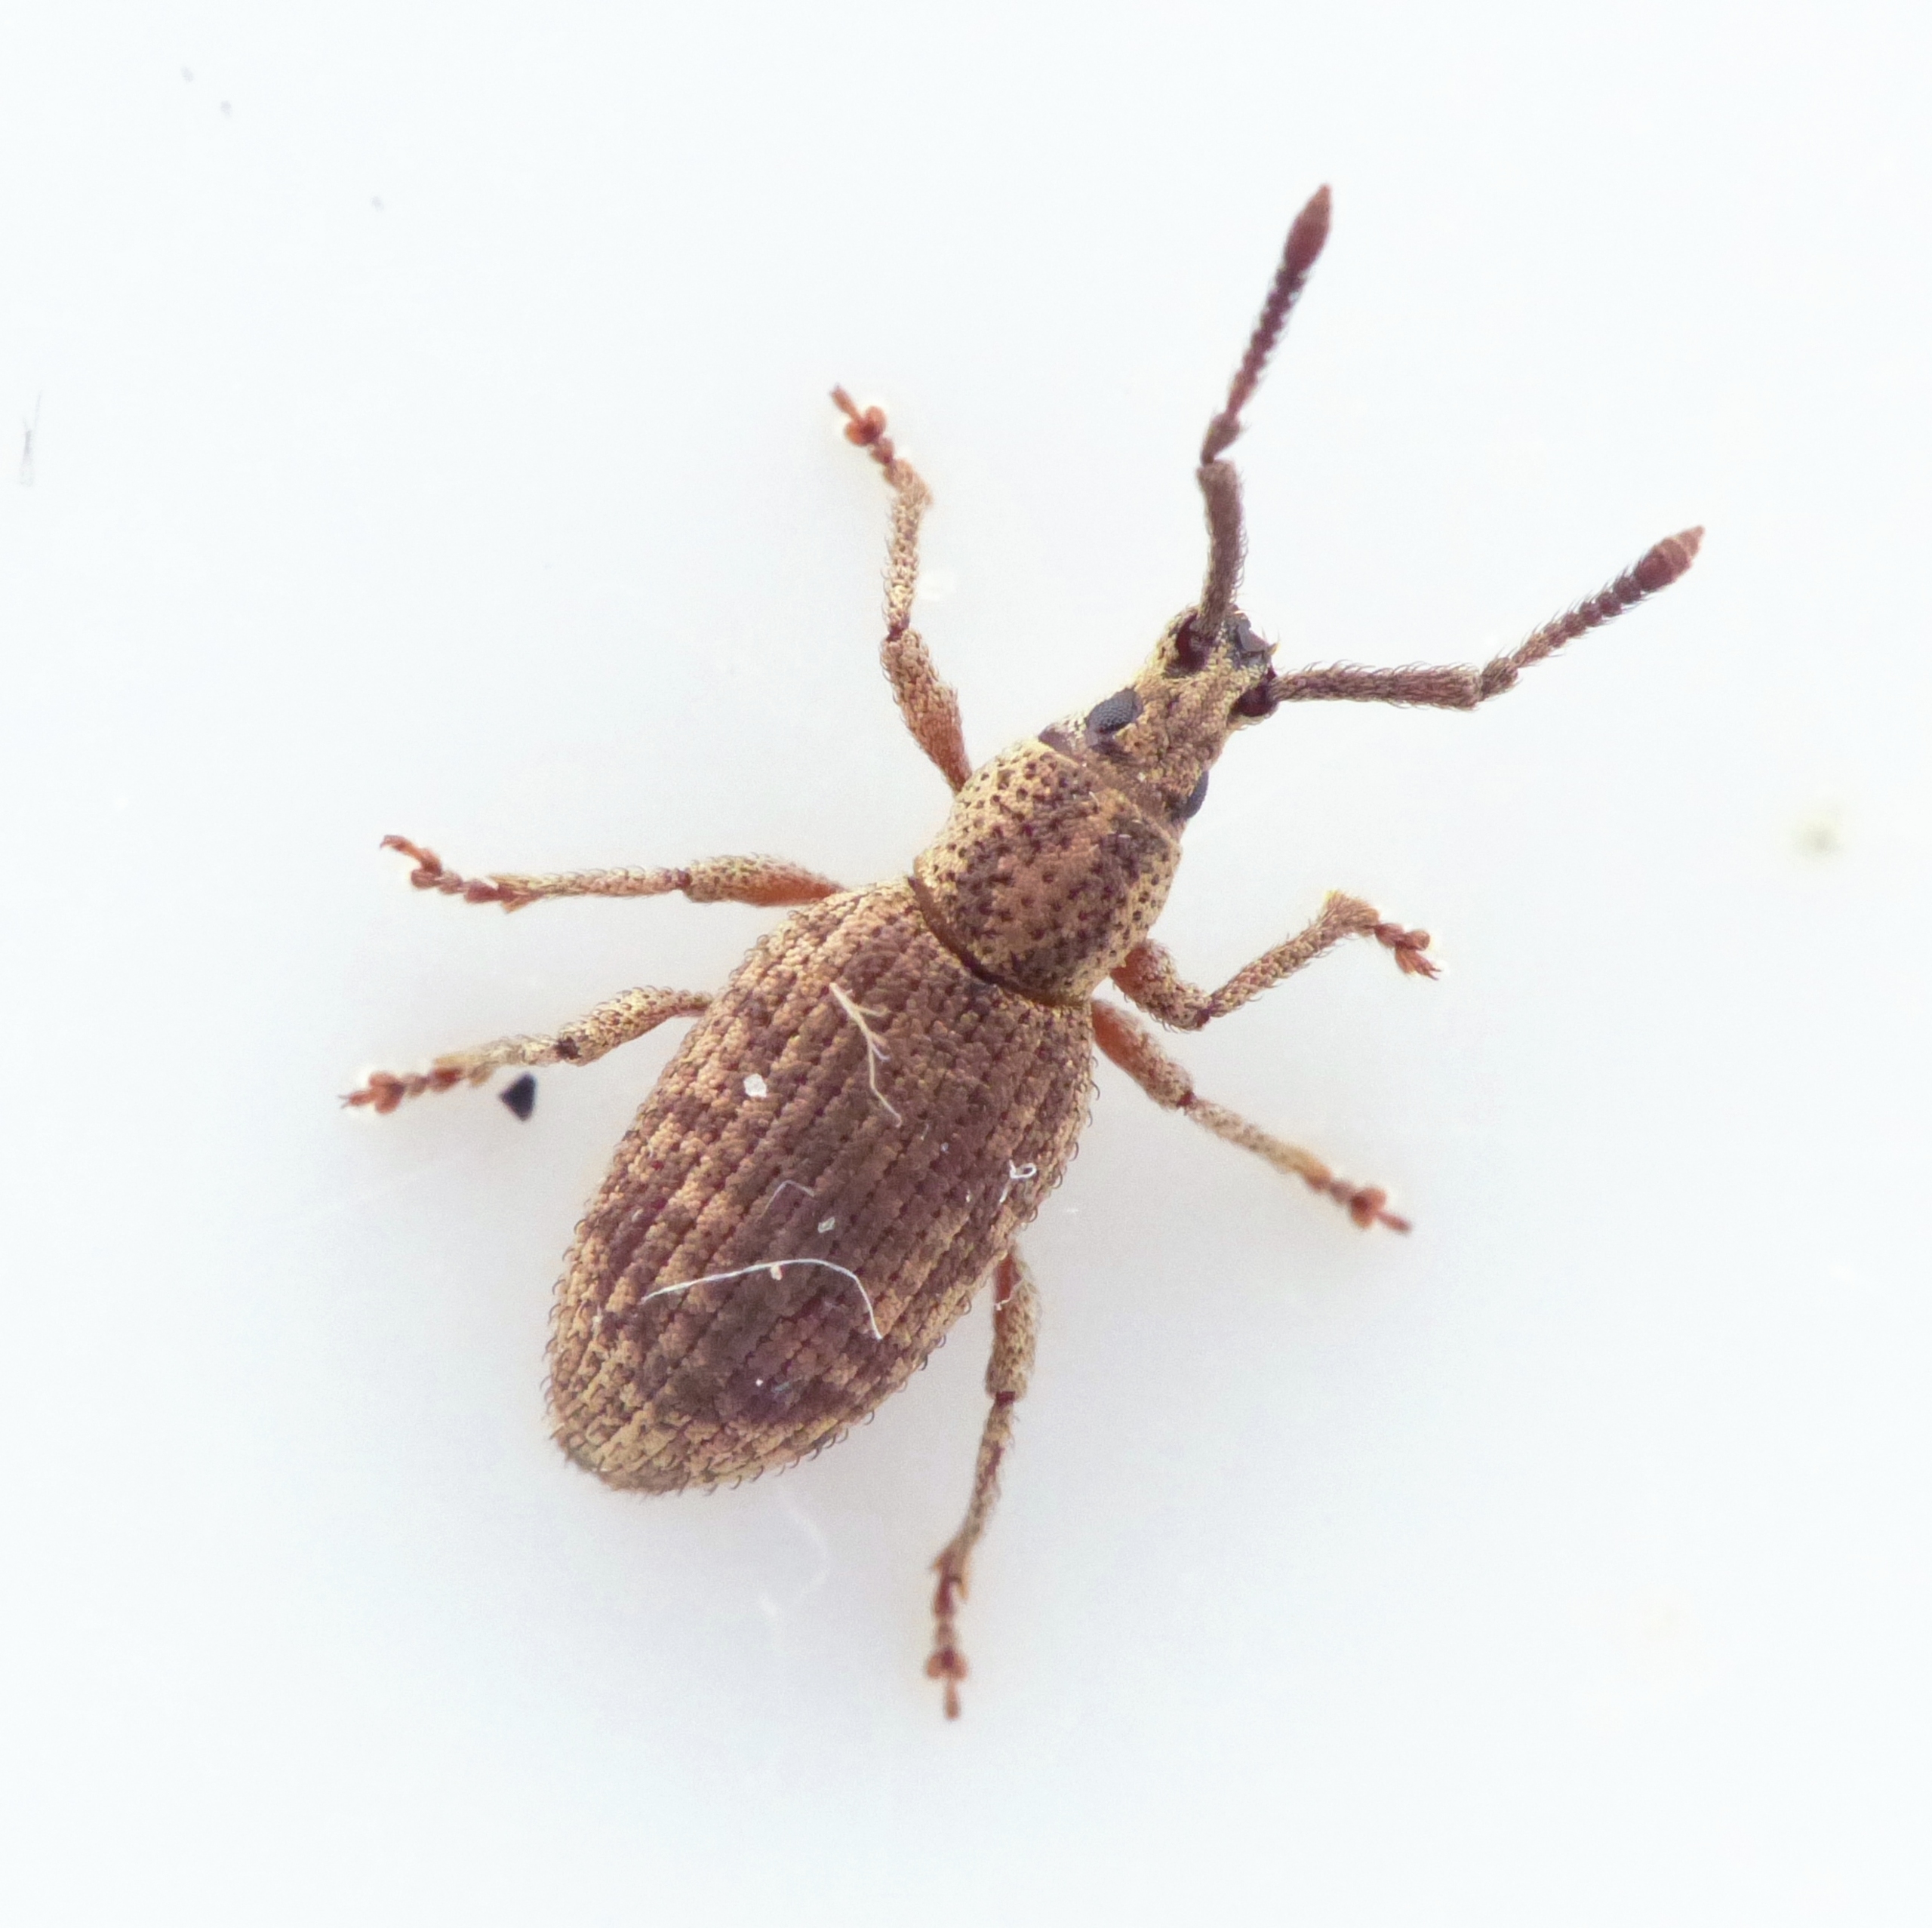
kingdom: Animalia
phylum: Arthropoda
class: Insecta
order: Coleoptera
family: Curculionidae
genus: Simo
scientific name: Simo hirticornis
